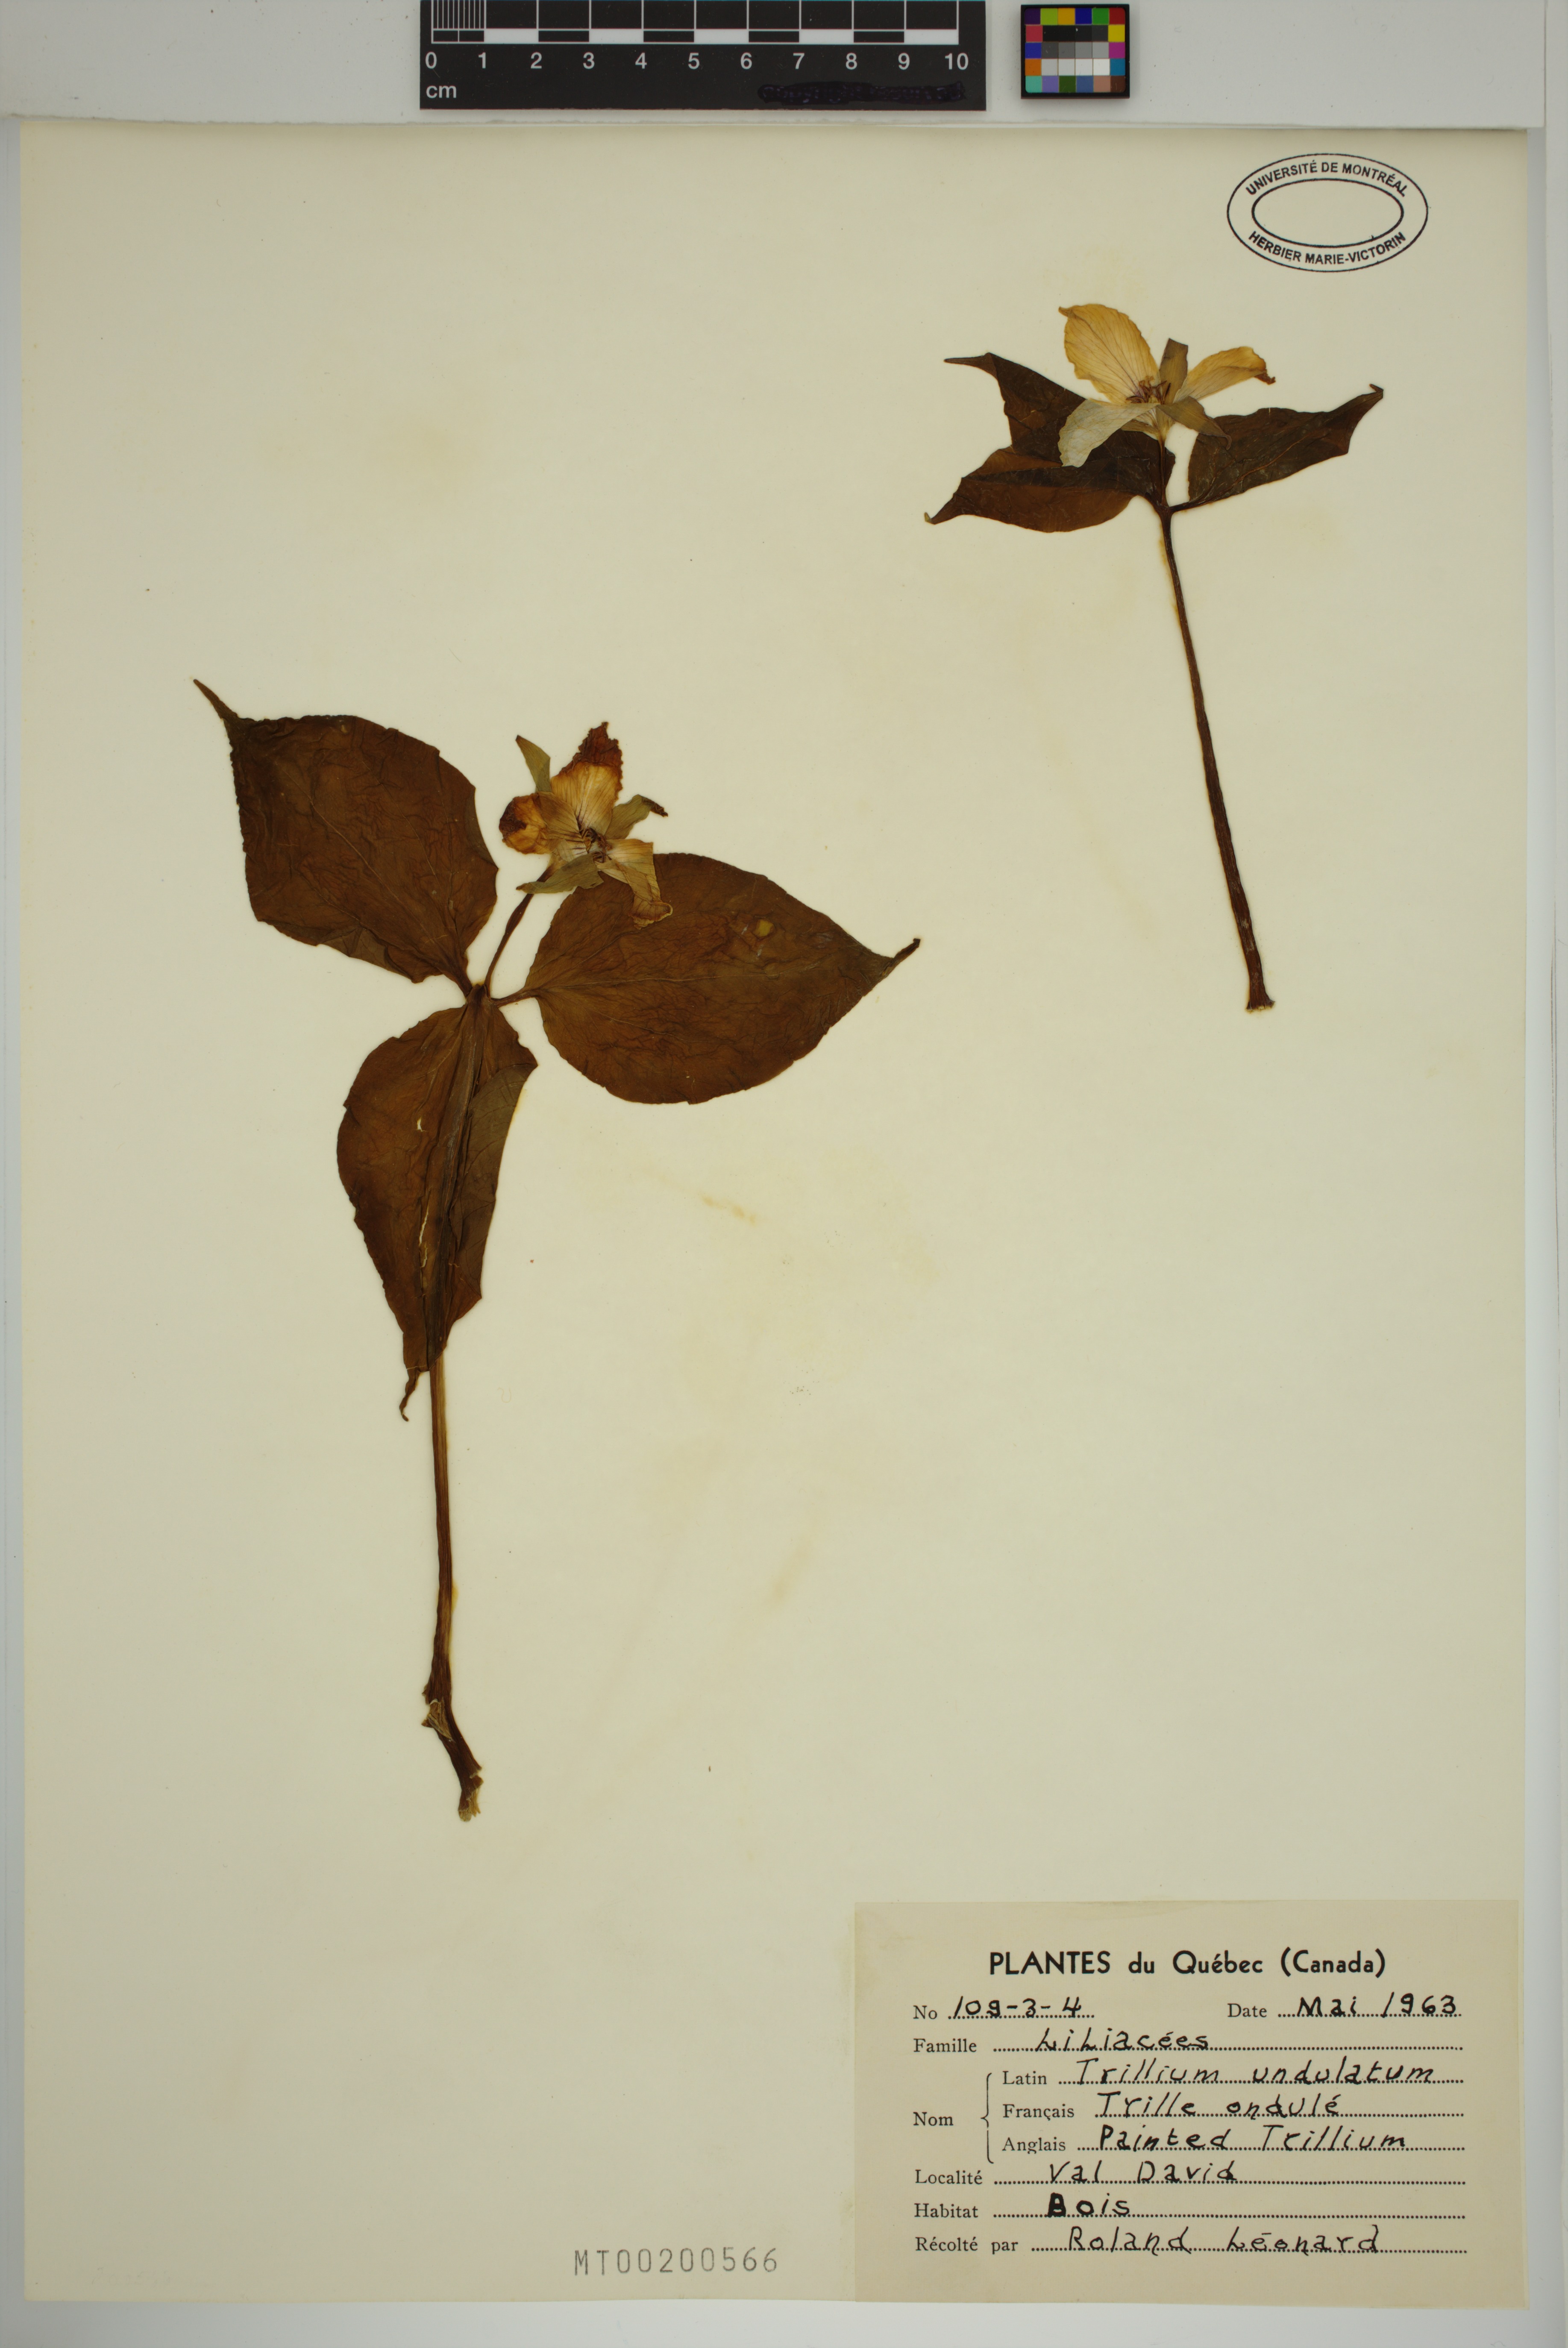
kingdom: Plantae
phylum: Tracheophyta
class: Liliopsida
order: Liliales
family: Melanthiaceae
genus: Trillium
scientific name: Trillium undulatum
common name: Paint trillium
